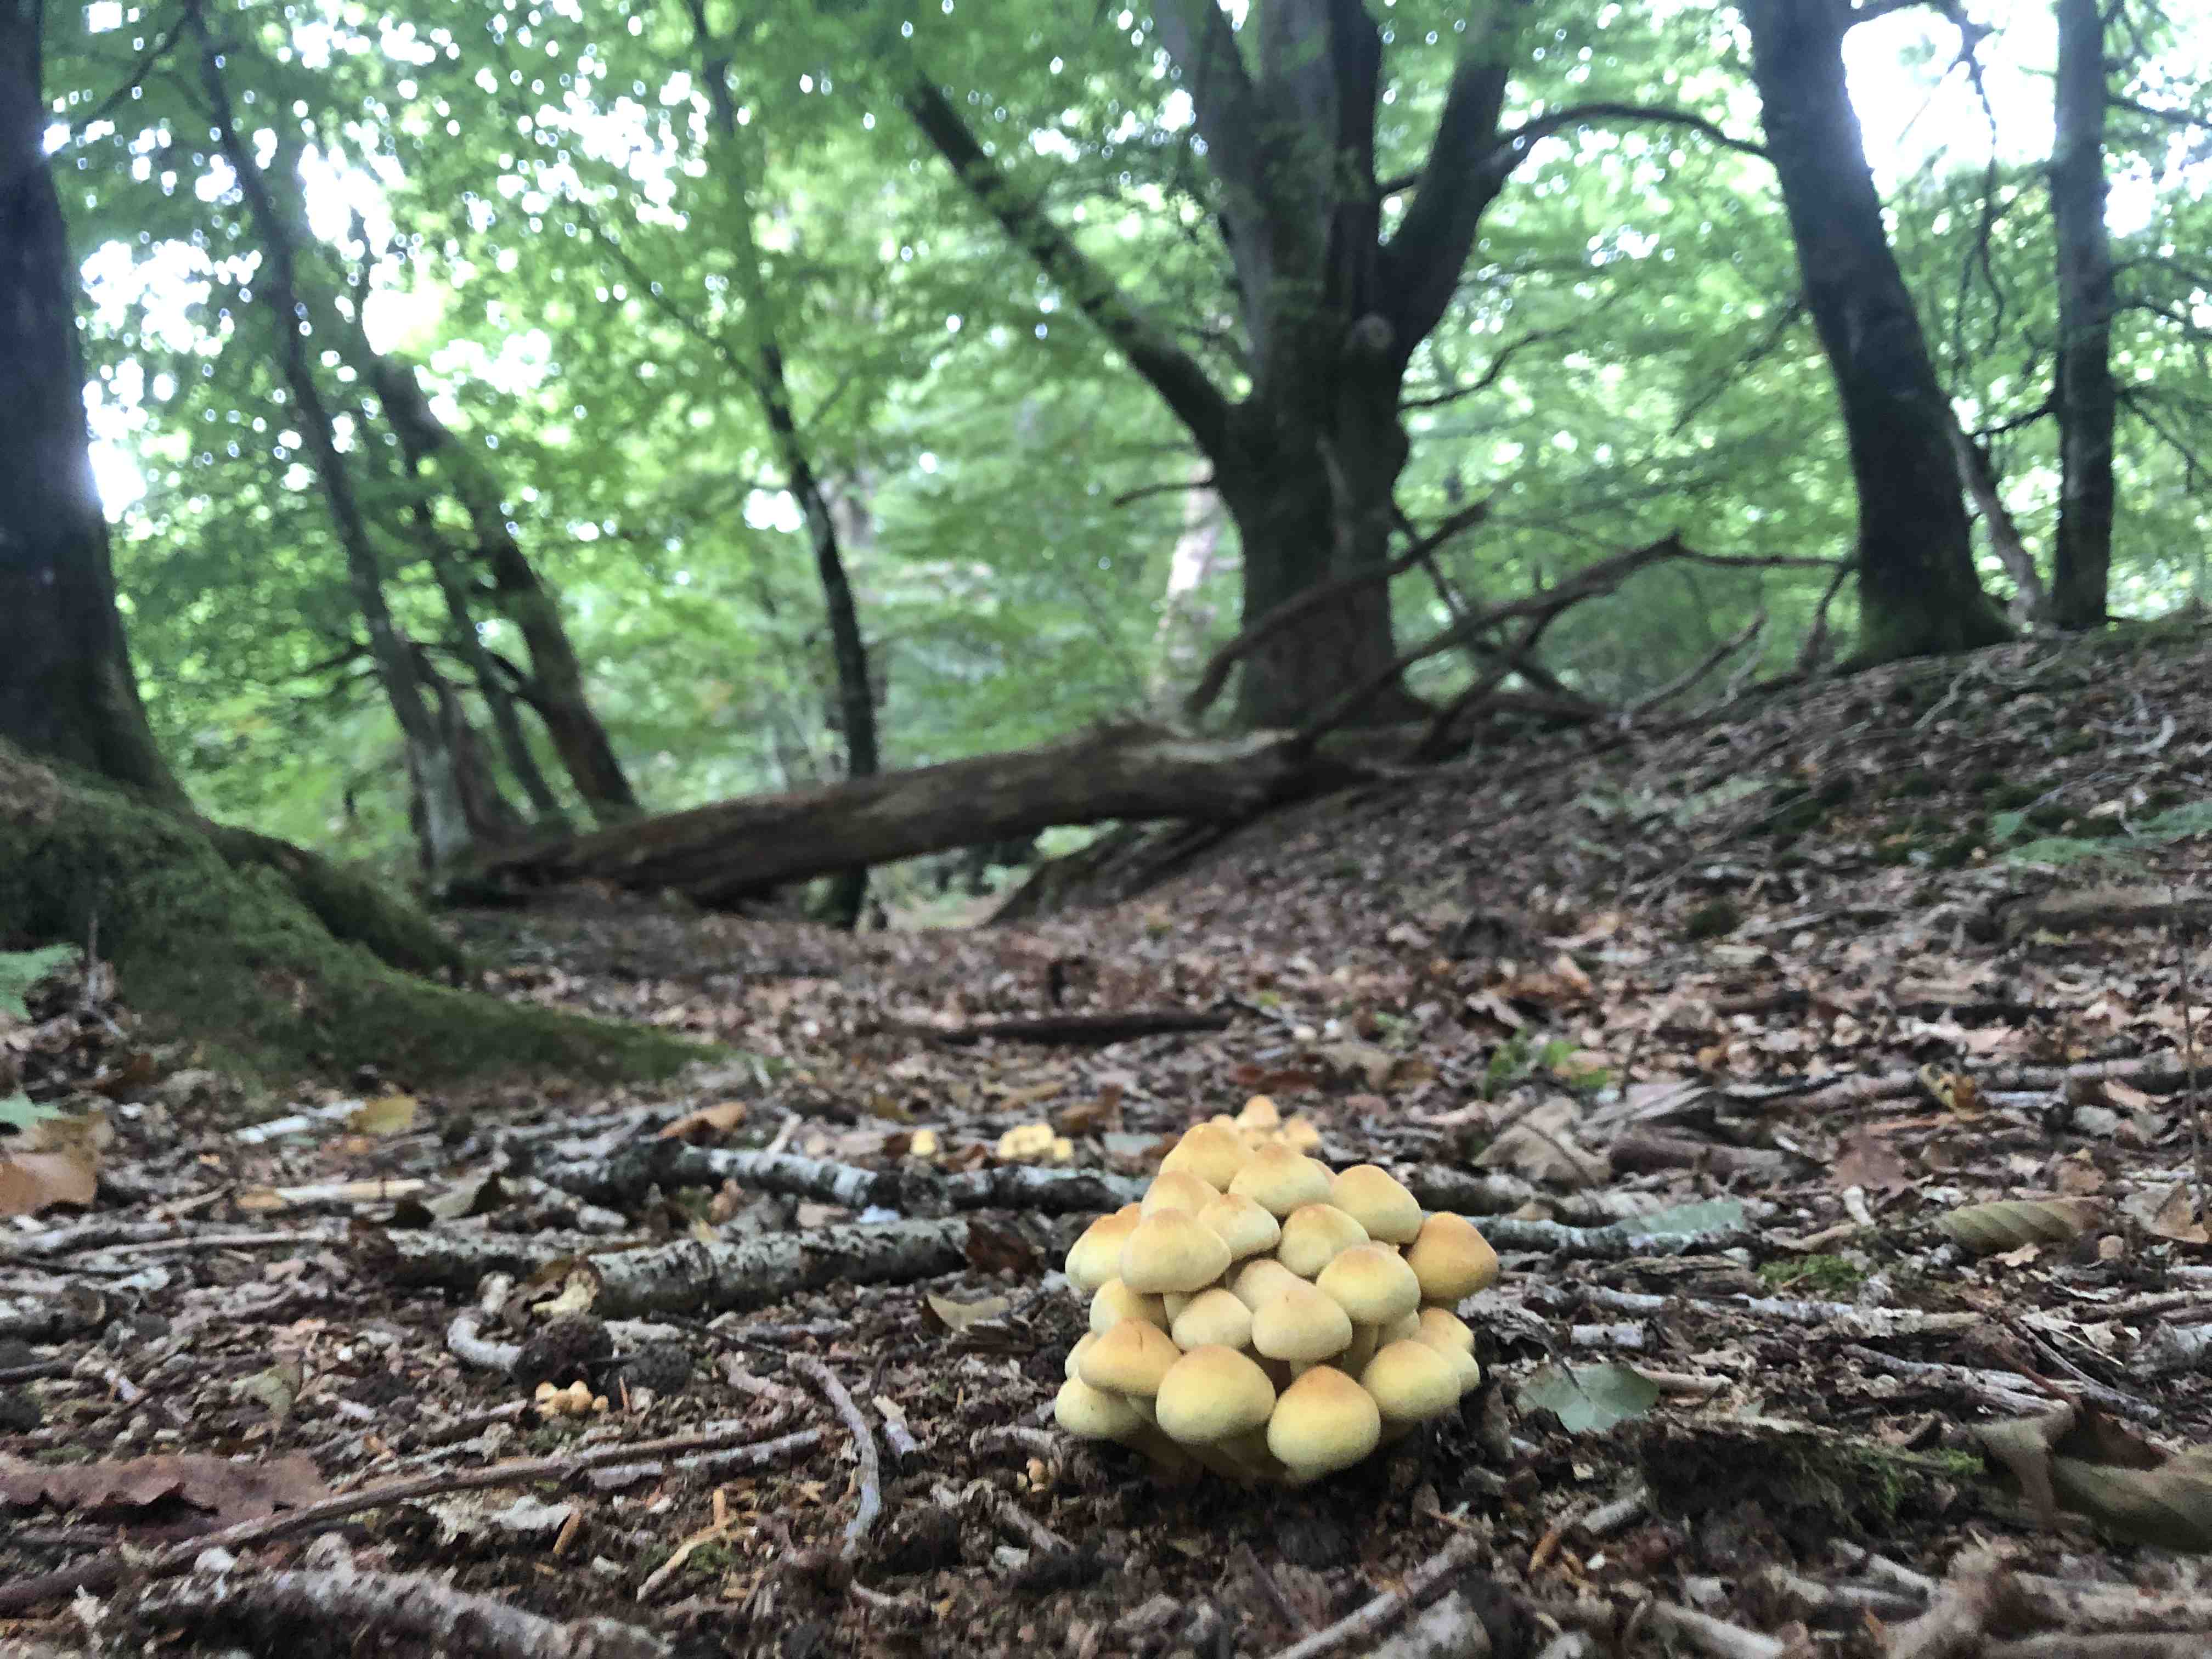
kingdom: Fungi
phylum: Basidiomycota
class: Agaricomycetes
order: Agaricales
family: Strophariaceae
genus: Hypholoma
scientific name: Hypholoma fasciculare
